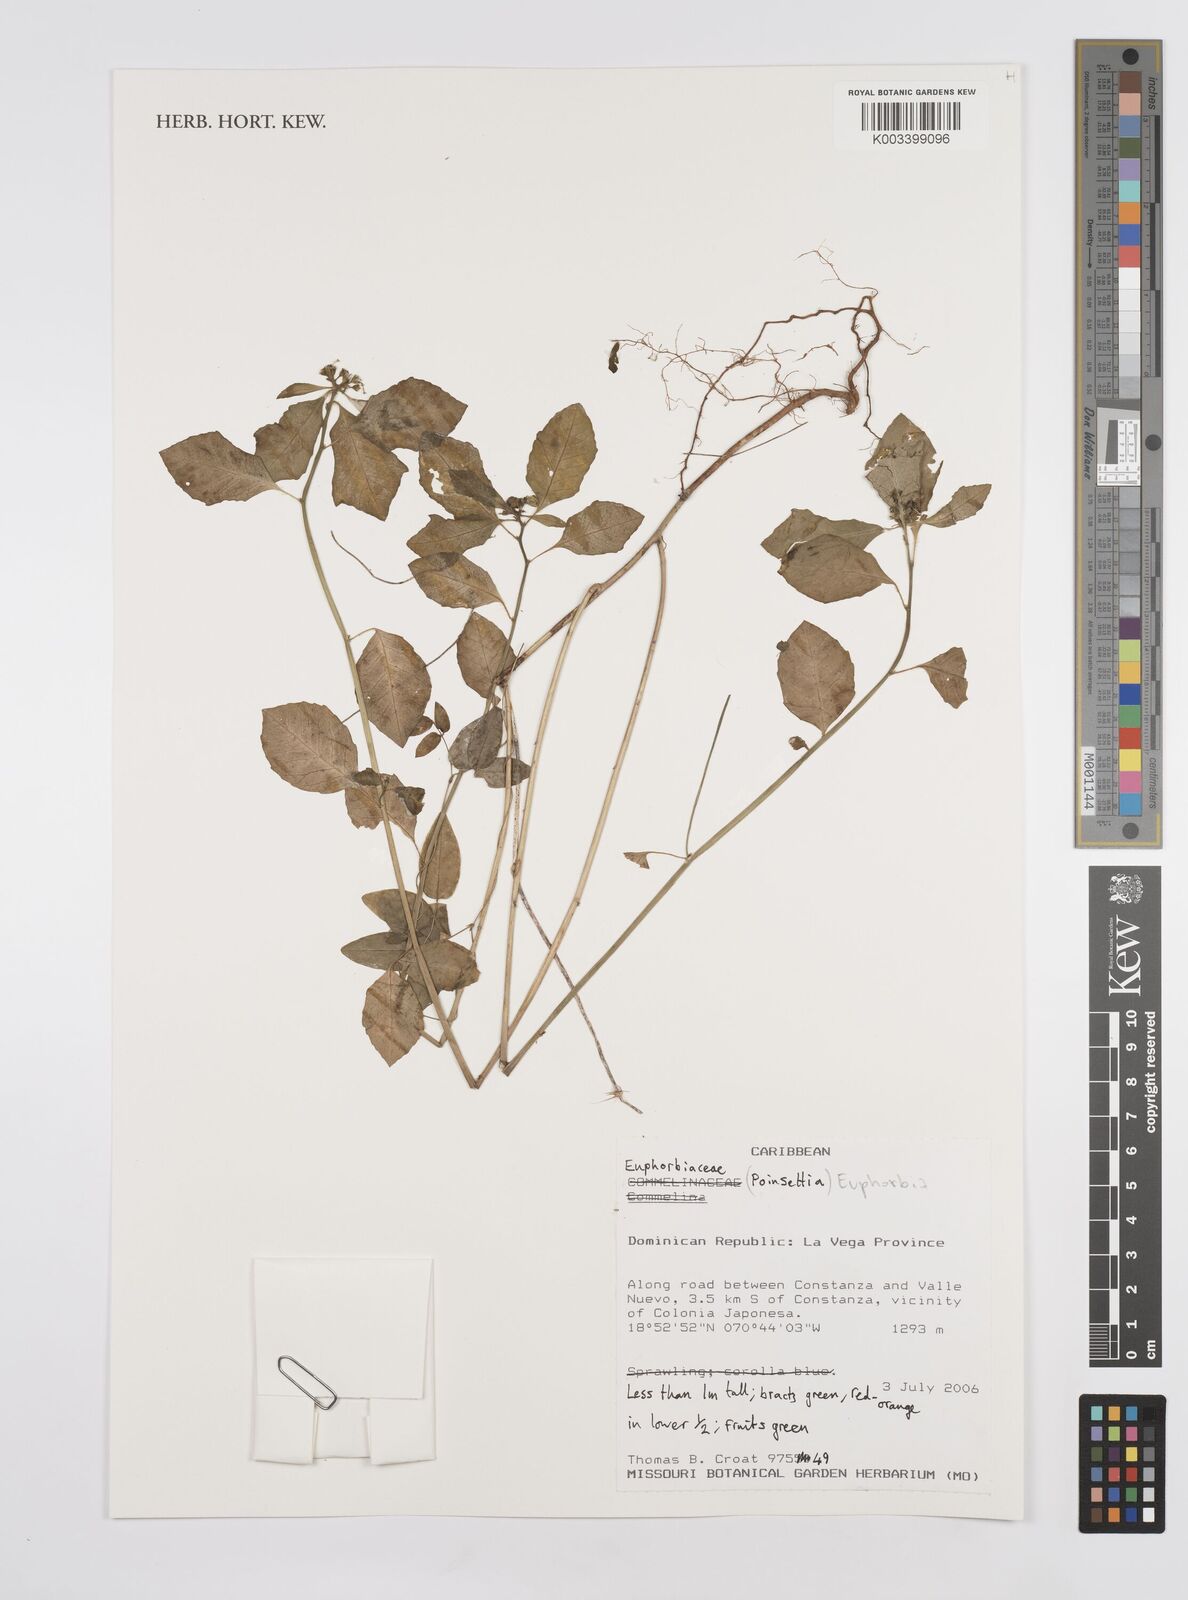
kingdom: Plantae
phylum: Tracheophyta
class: Magnoliopsida
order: Malpighiales
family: Euphorbiaceae
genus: Euphorbia
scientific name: Euphorbia
